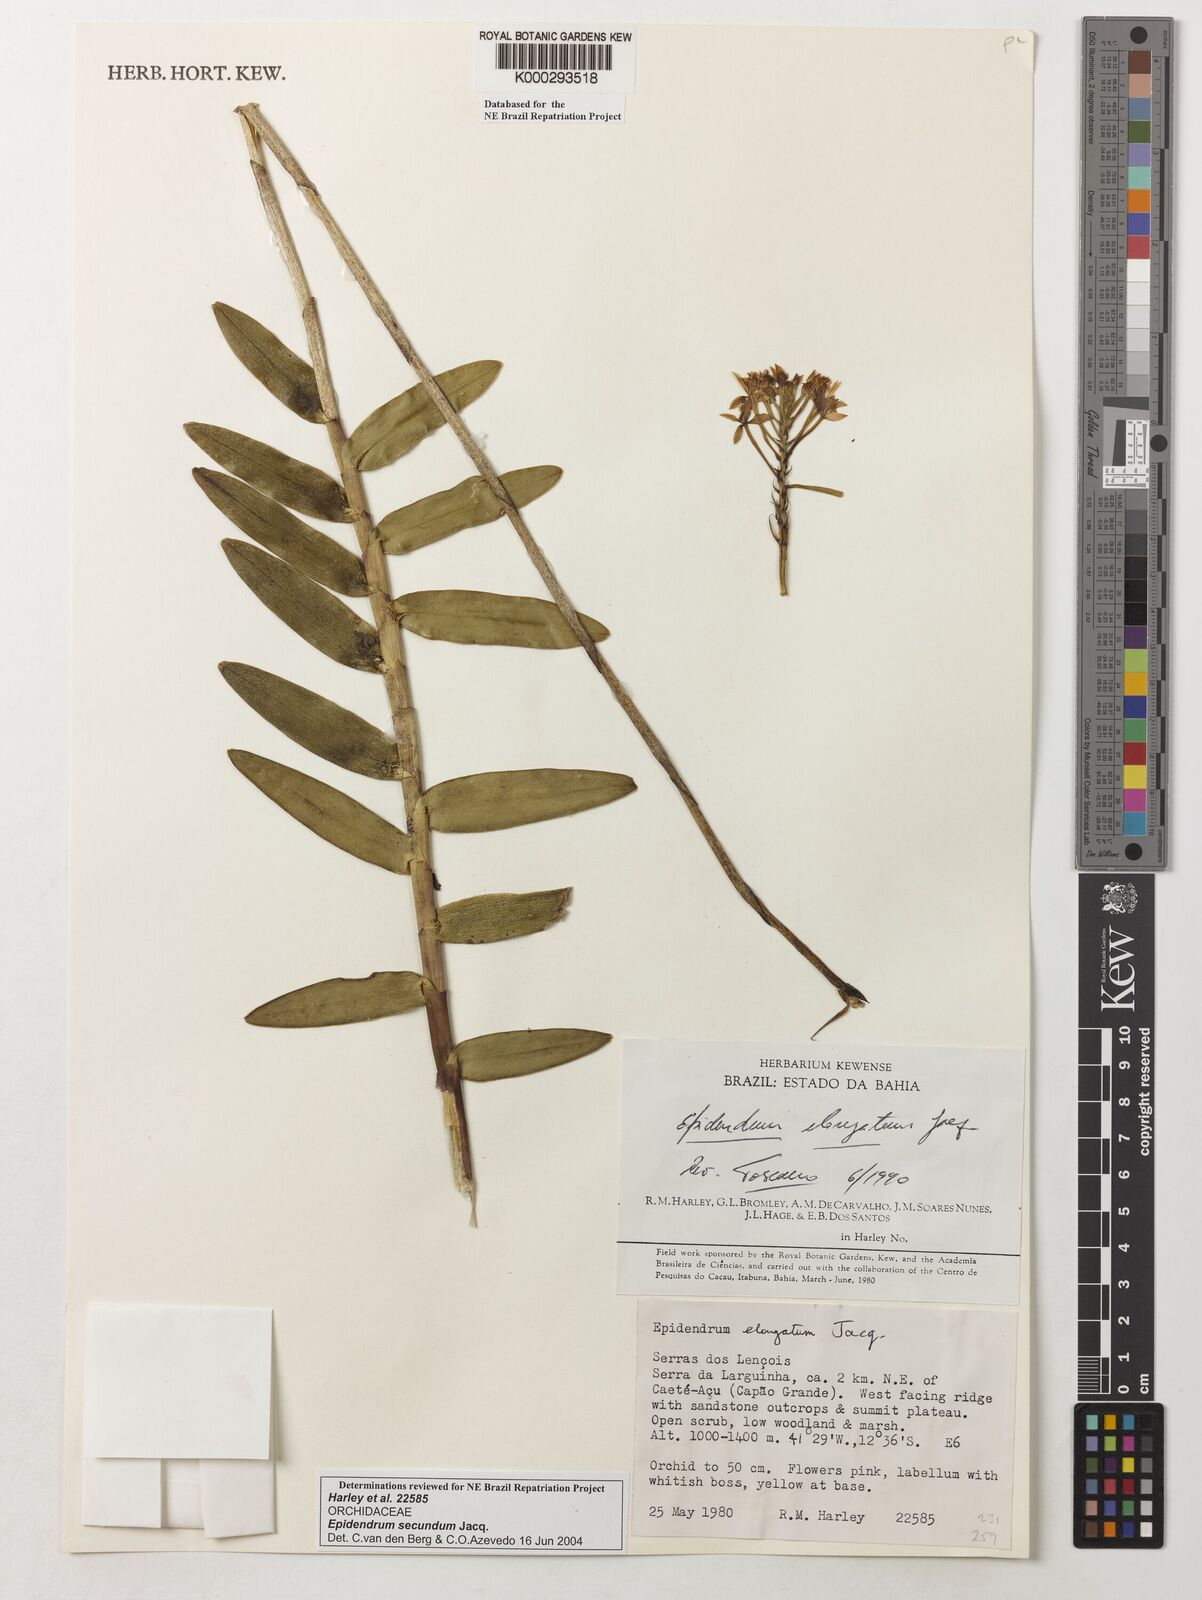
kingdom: Plantae
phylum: Tracheophyta
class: Liliopsida
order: Asparagales
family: Orchidaceae
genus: Epidendrum
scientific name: Epidendrum secundum
